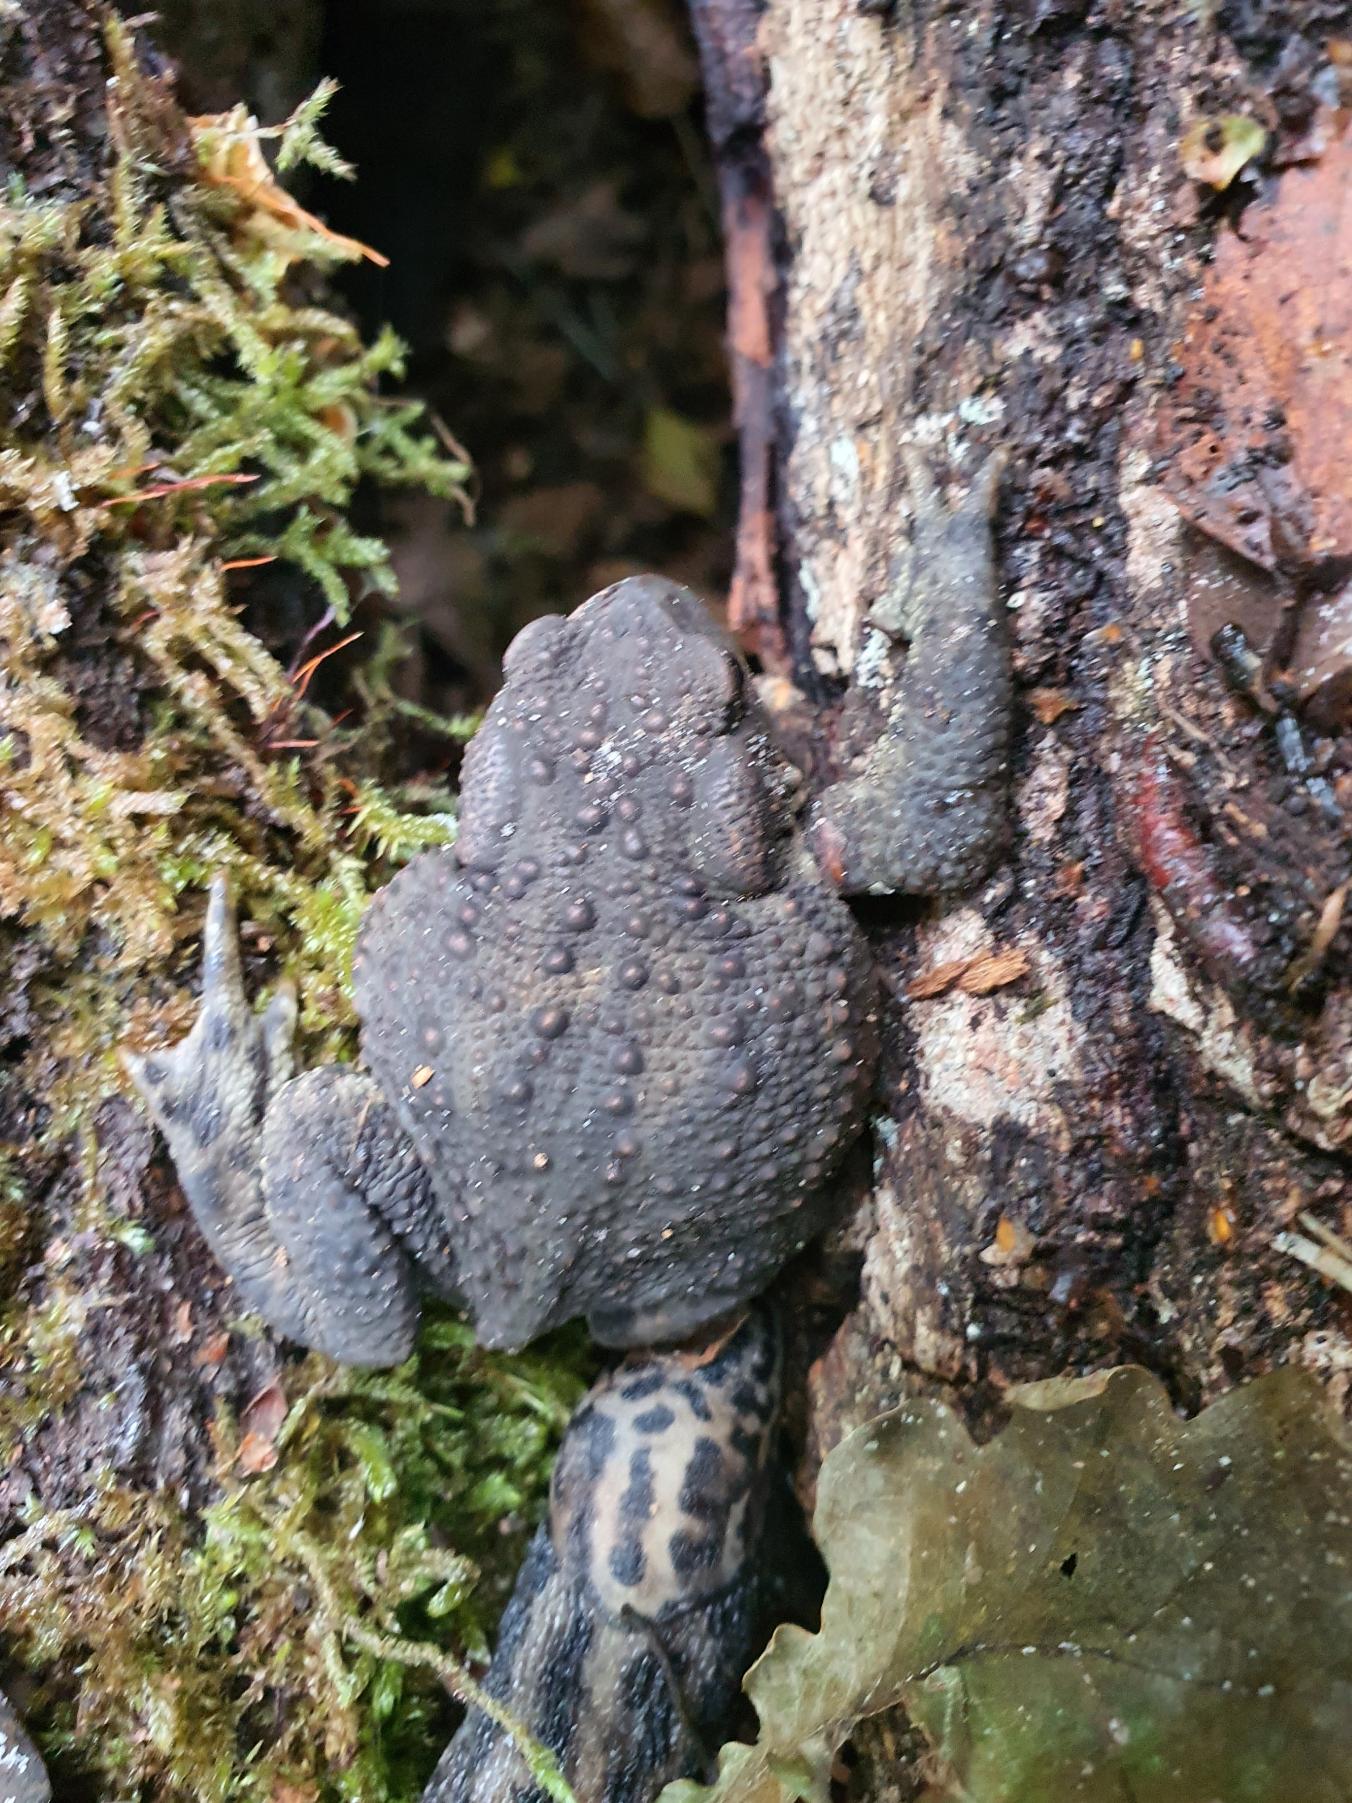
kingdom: Animalia
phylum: Chordata
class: Amphibia
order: Anura
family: Bufonidae
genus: Bufo
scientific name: Bufo bufo
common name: Skrubtudse
